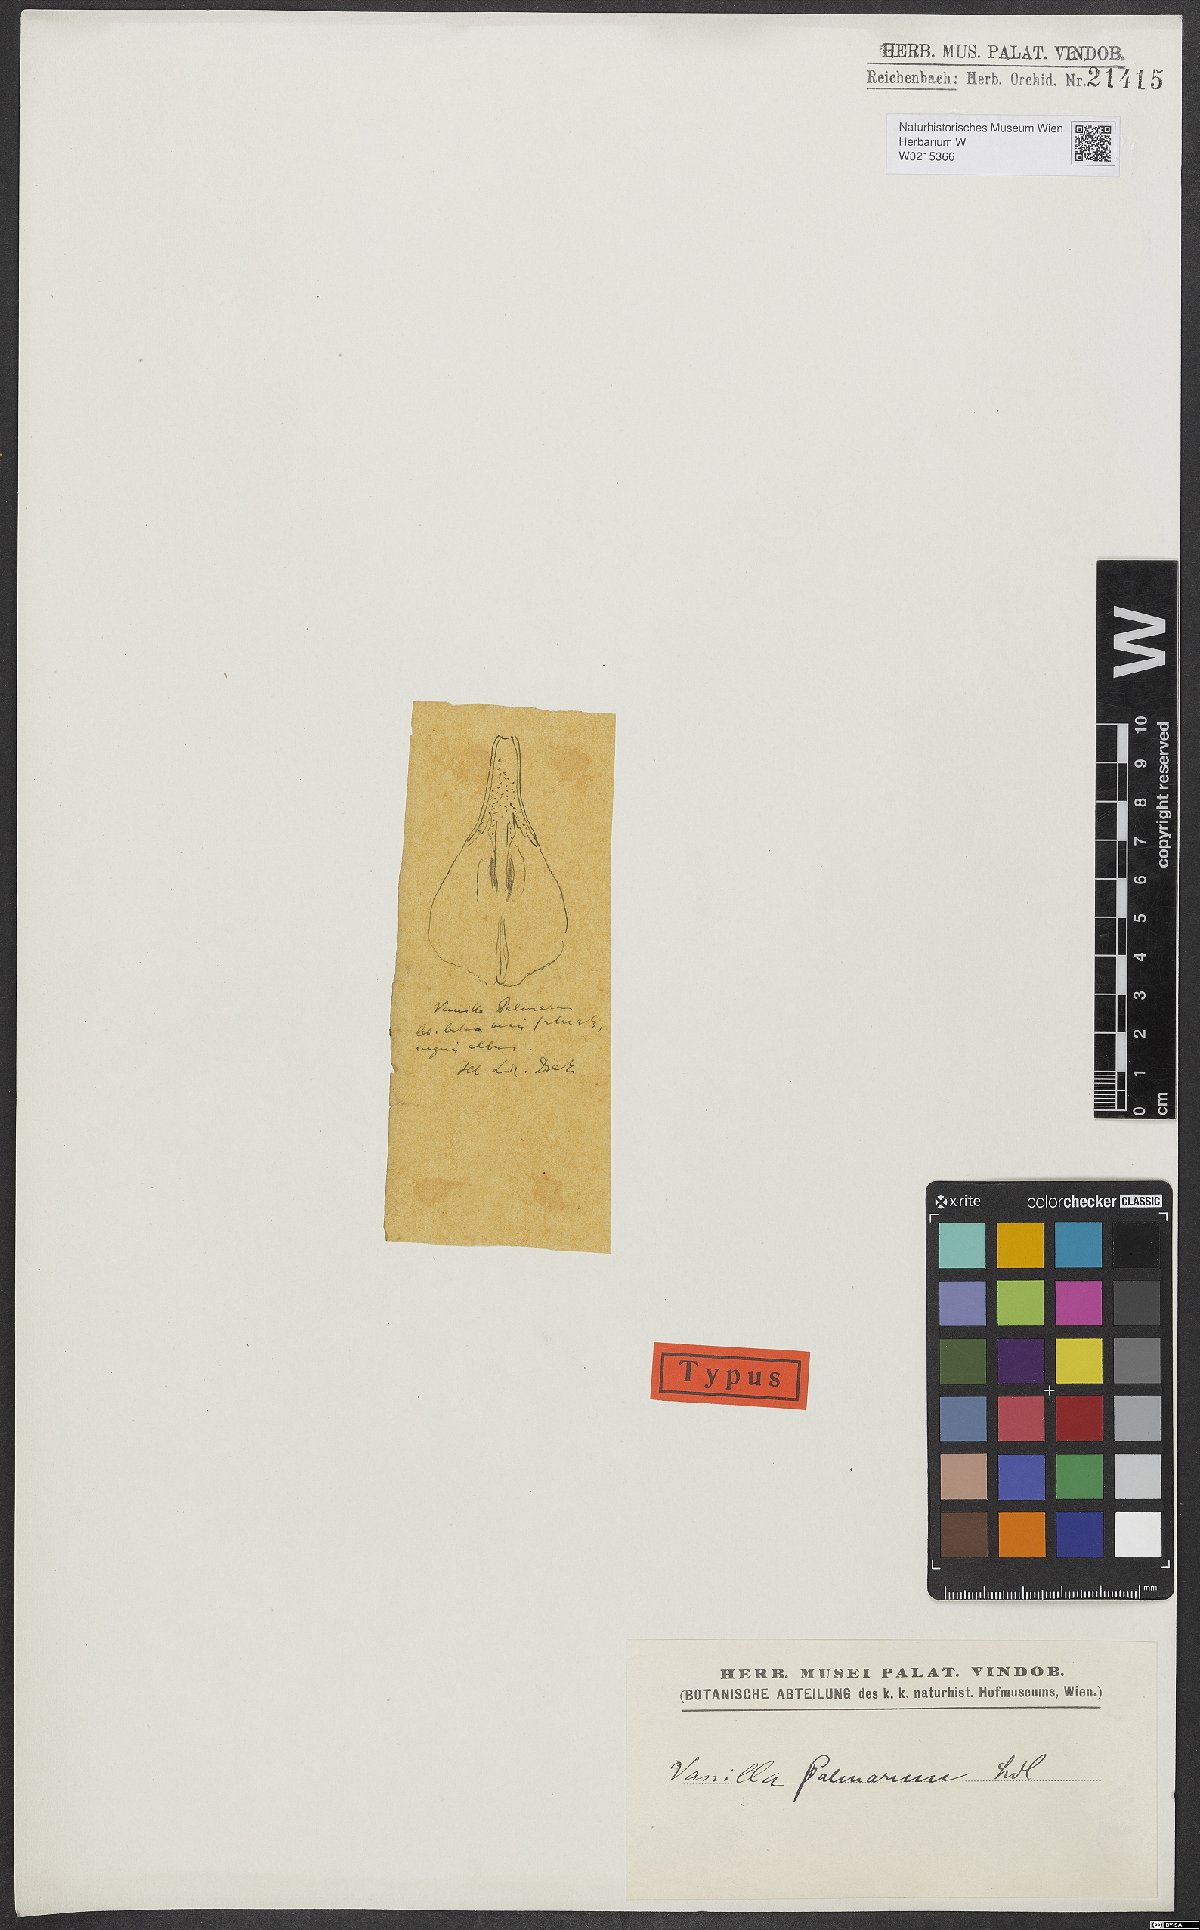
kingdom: Plantae
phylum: Tracheophyta
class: Liliopsida
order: Asparagales
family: Orchidaceae
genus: Vanilla
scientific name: Vanilla
